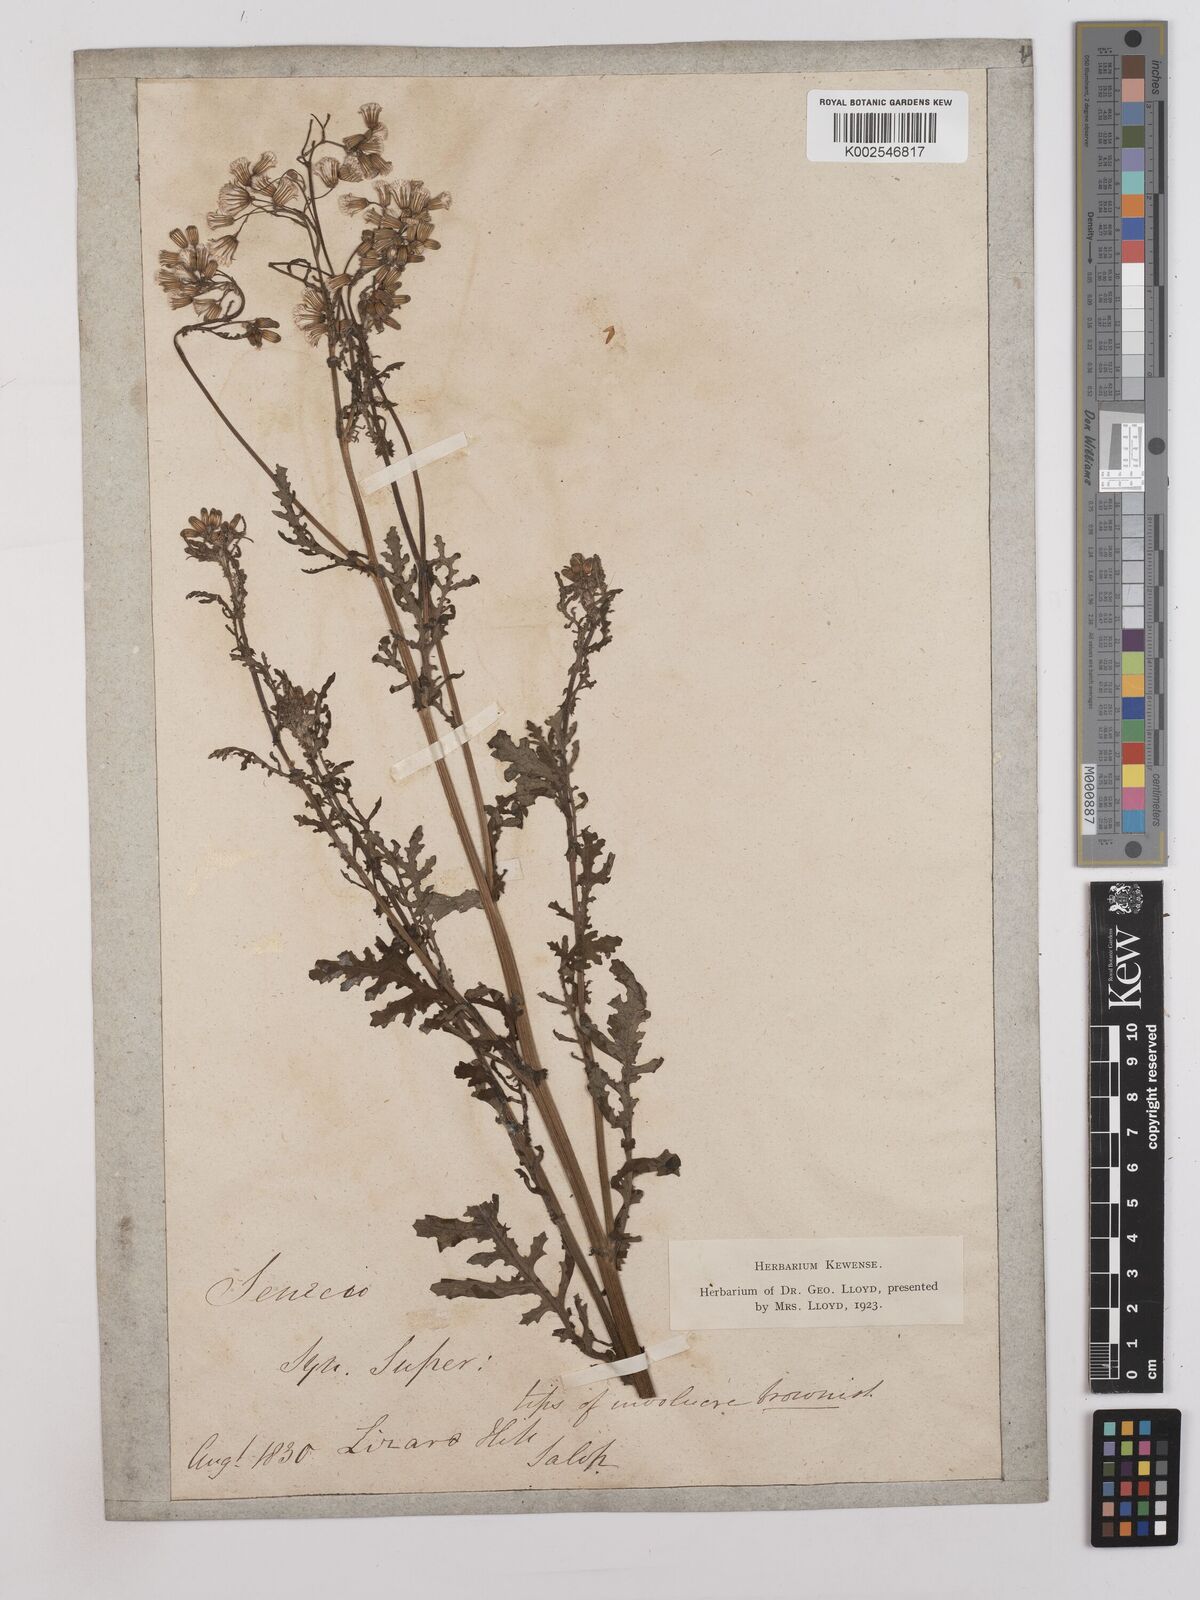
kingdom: Plantae
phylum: Tracheophyta
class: Magnoliopsida
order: Asterales
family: Asteraceae
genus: Senecio
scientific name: Senecio sylvaticus
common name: Woodland ragwort
